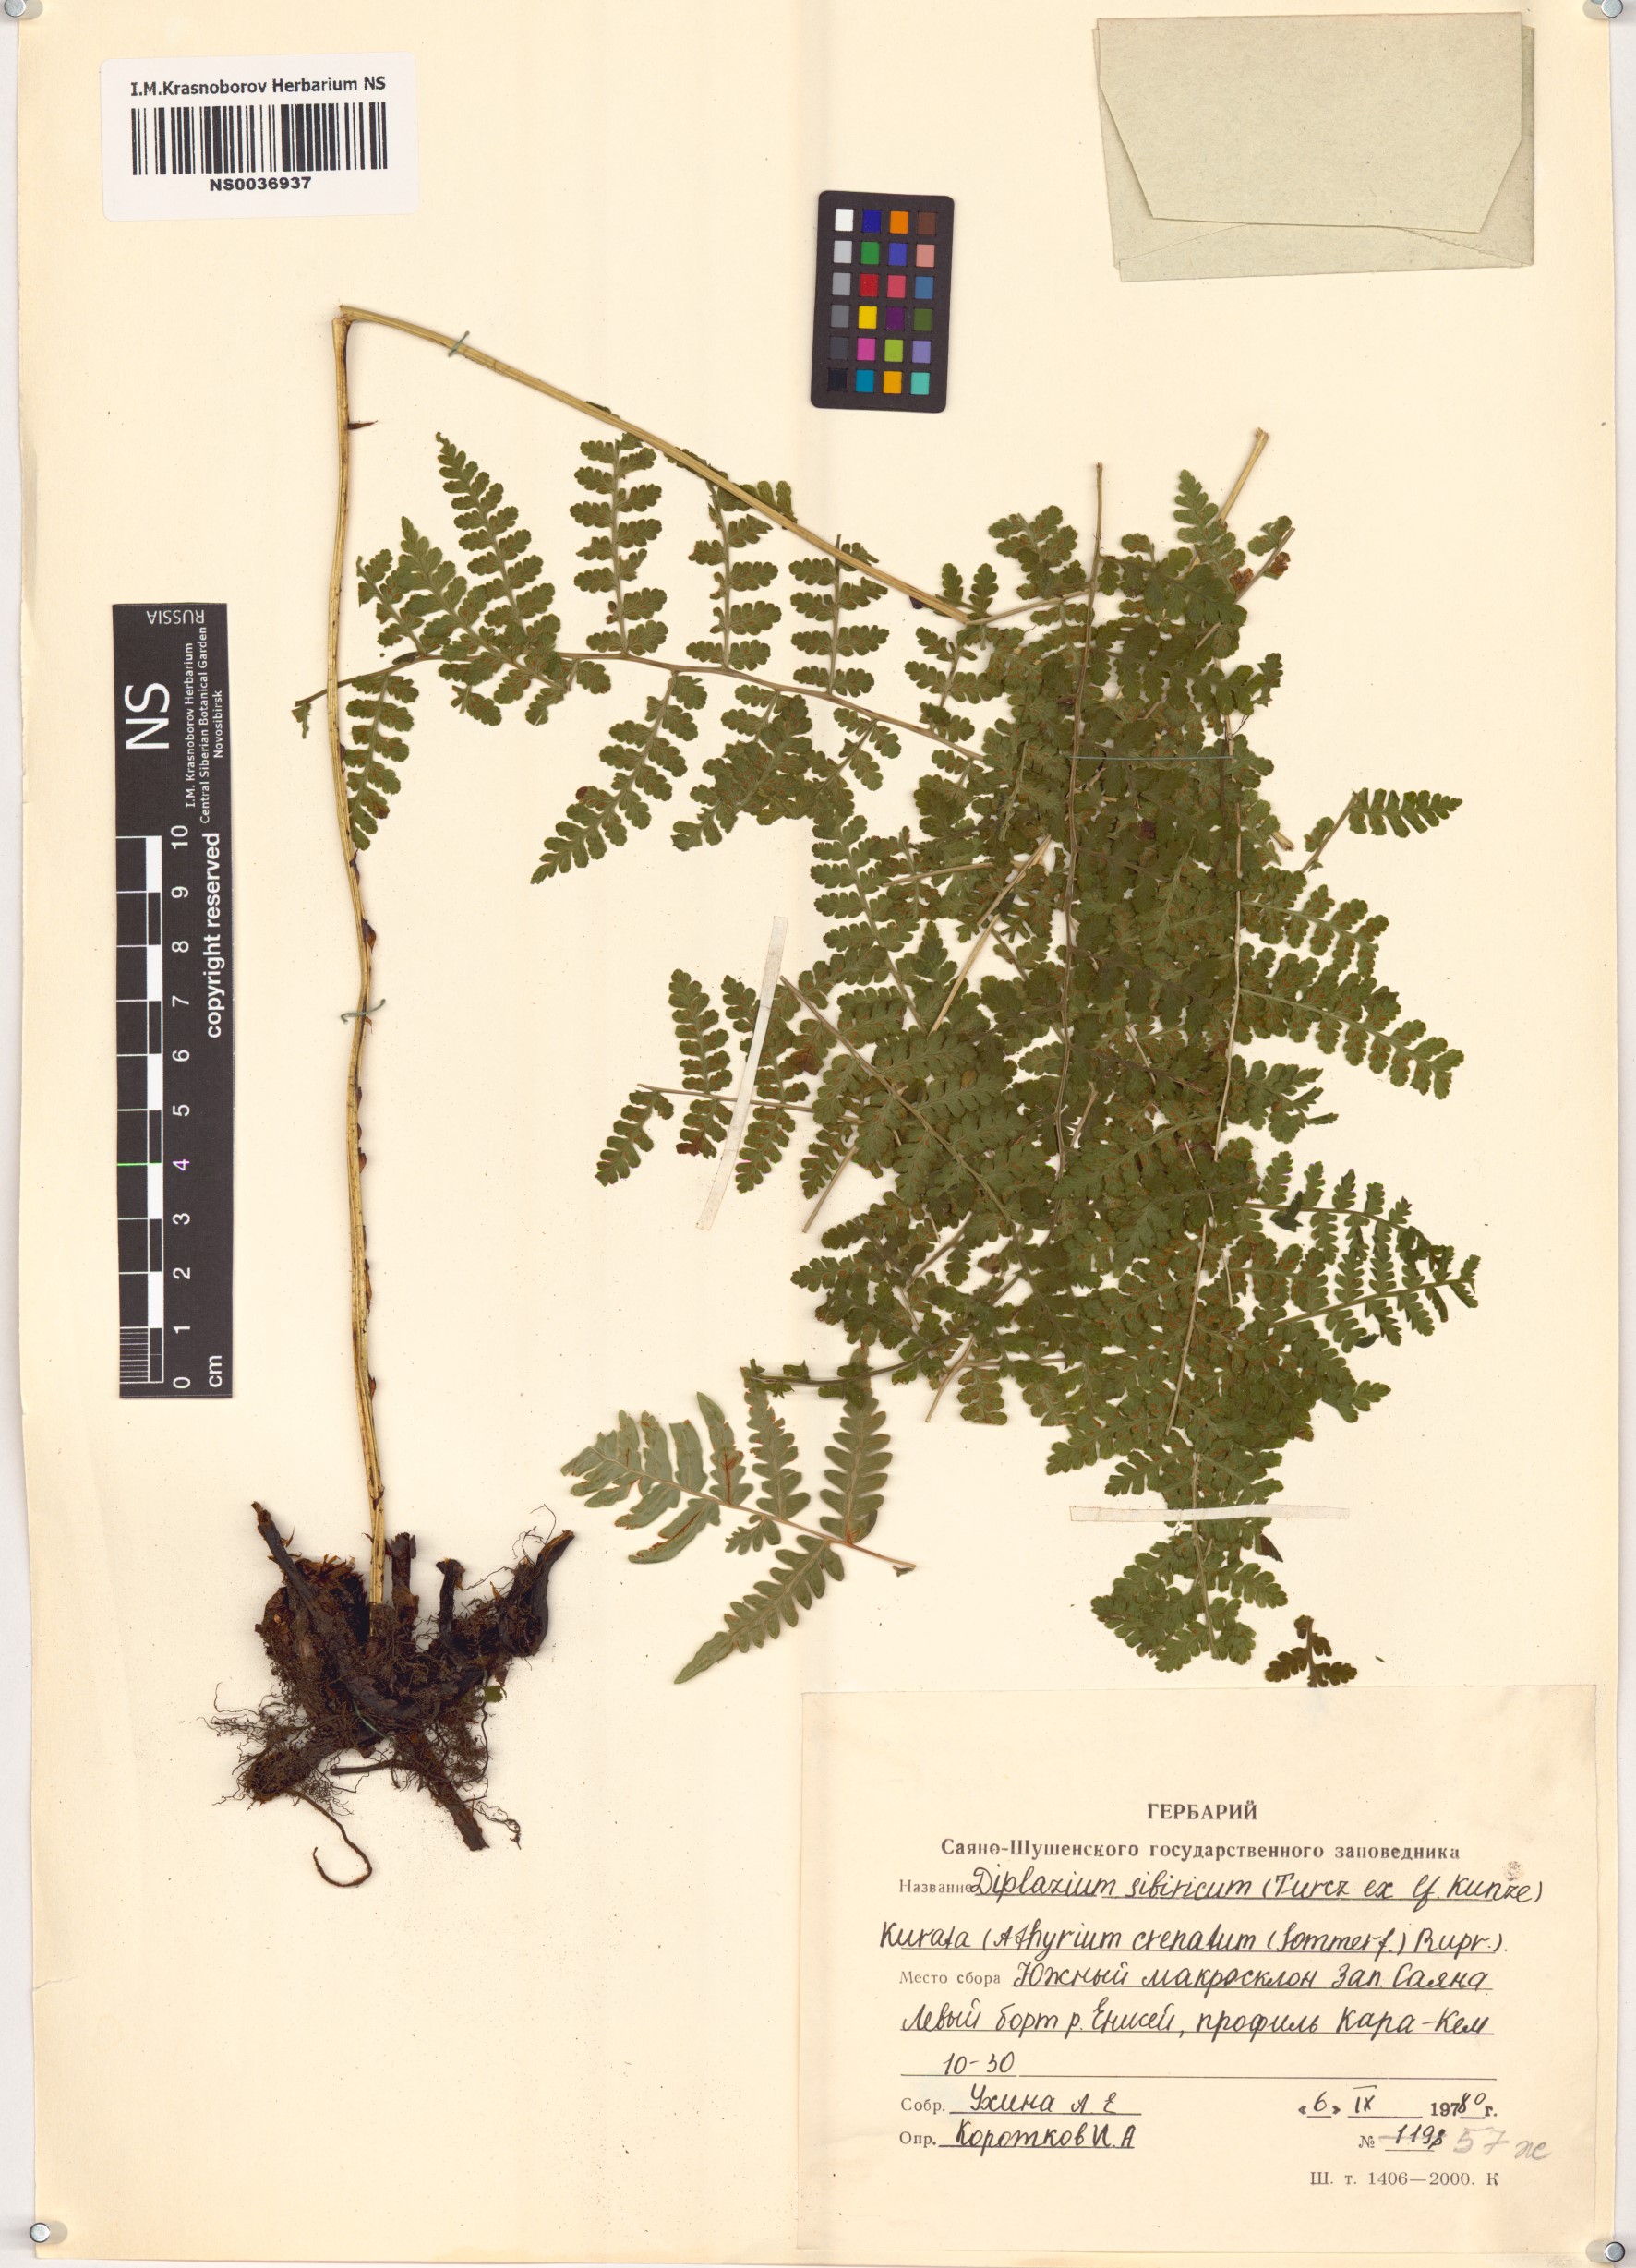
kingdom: Plantae
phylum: Tracheophyta
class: Polypodiopsida
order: Polypodiales
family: Athyriaceae
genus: Diplazium
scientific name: Diplazium sibiricum
